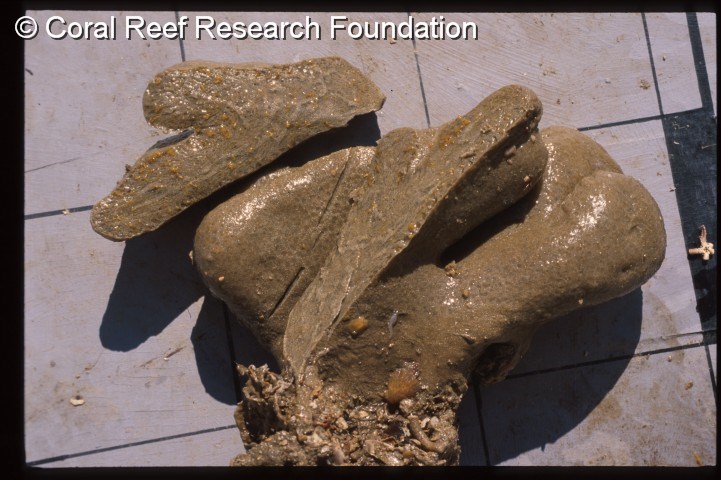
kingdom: Animalia
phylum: Chordata
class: Ascidiacea
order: Aplousobranchia
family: Polyclinidae
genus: Aplidium
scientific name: Aplidium
